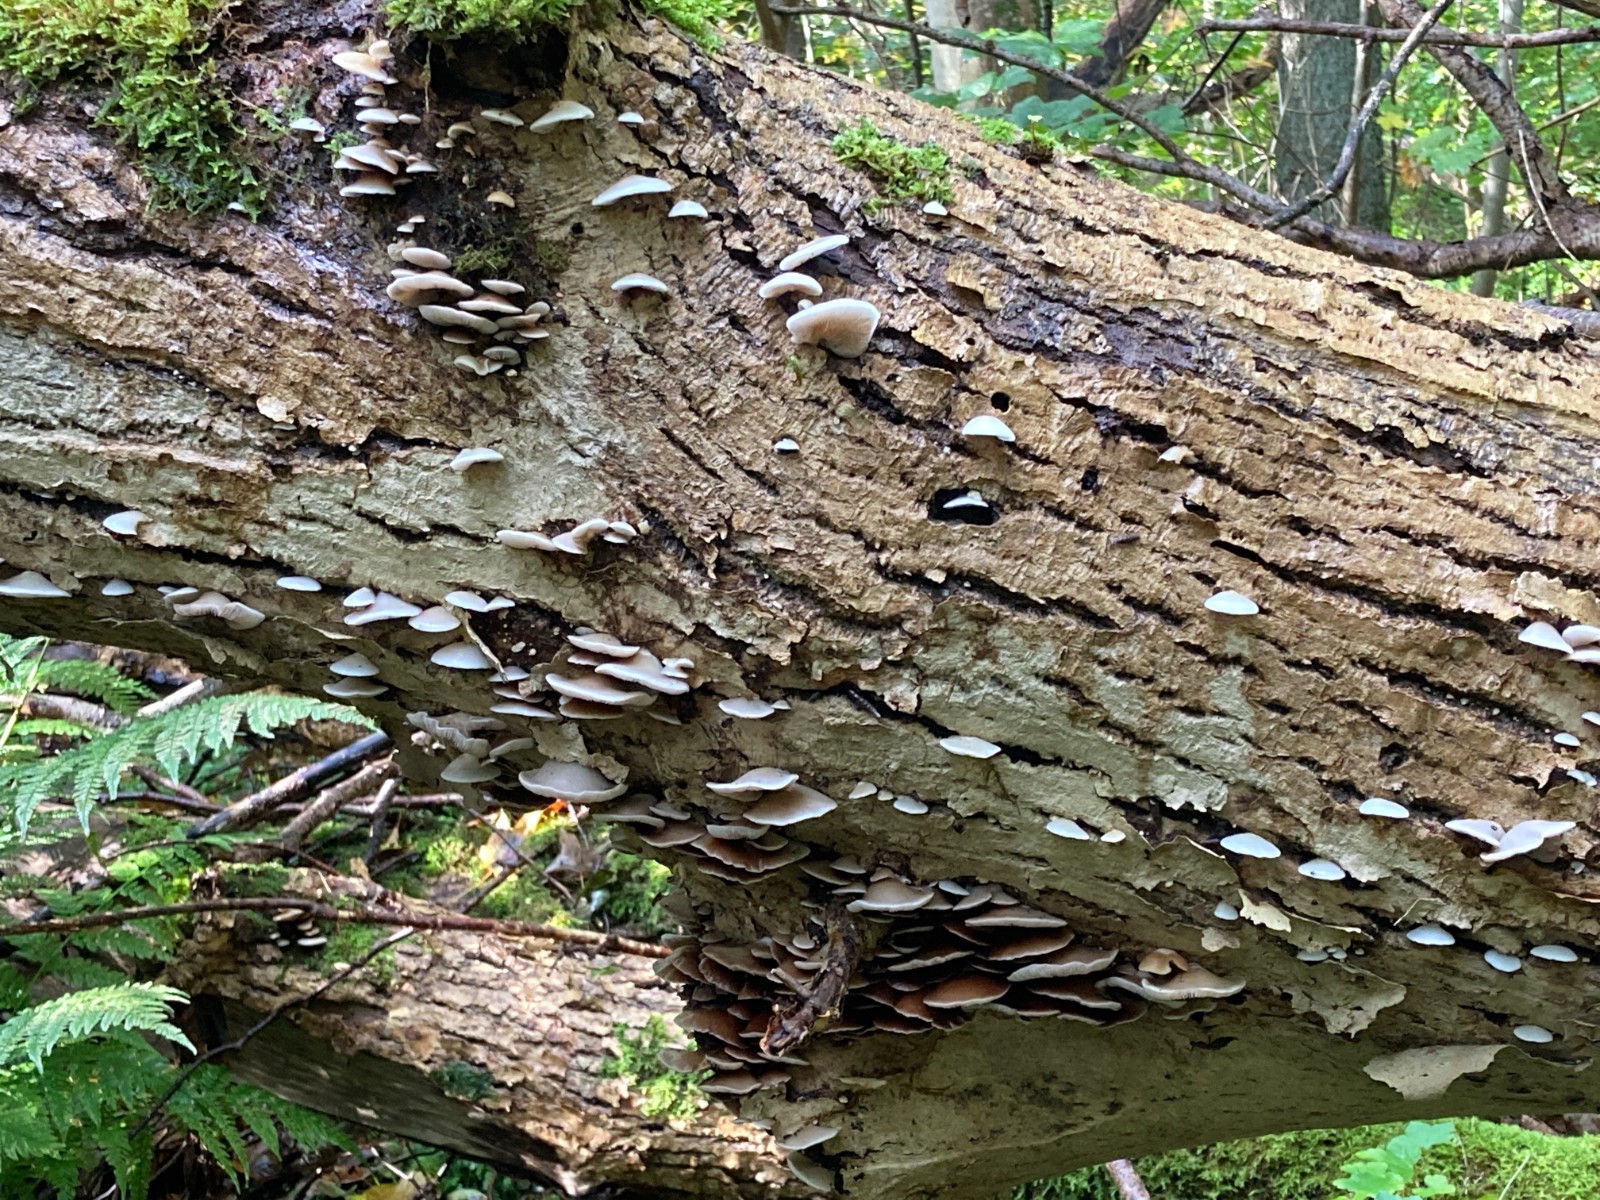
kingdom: Fungi
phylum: Basidiomycota
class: Agaricomycetes
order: Polyporales
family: Polyporaceae
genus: Podofomes
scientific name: Podofomes mollis
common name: blød begporesvamp
